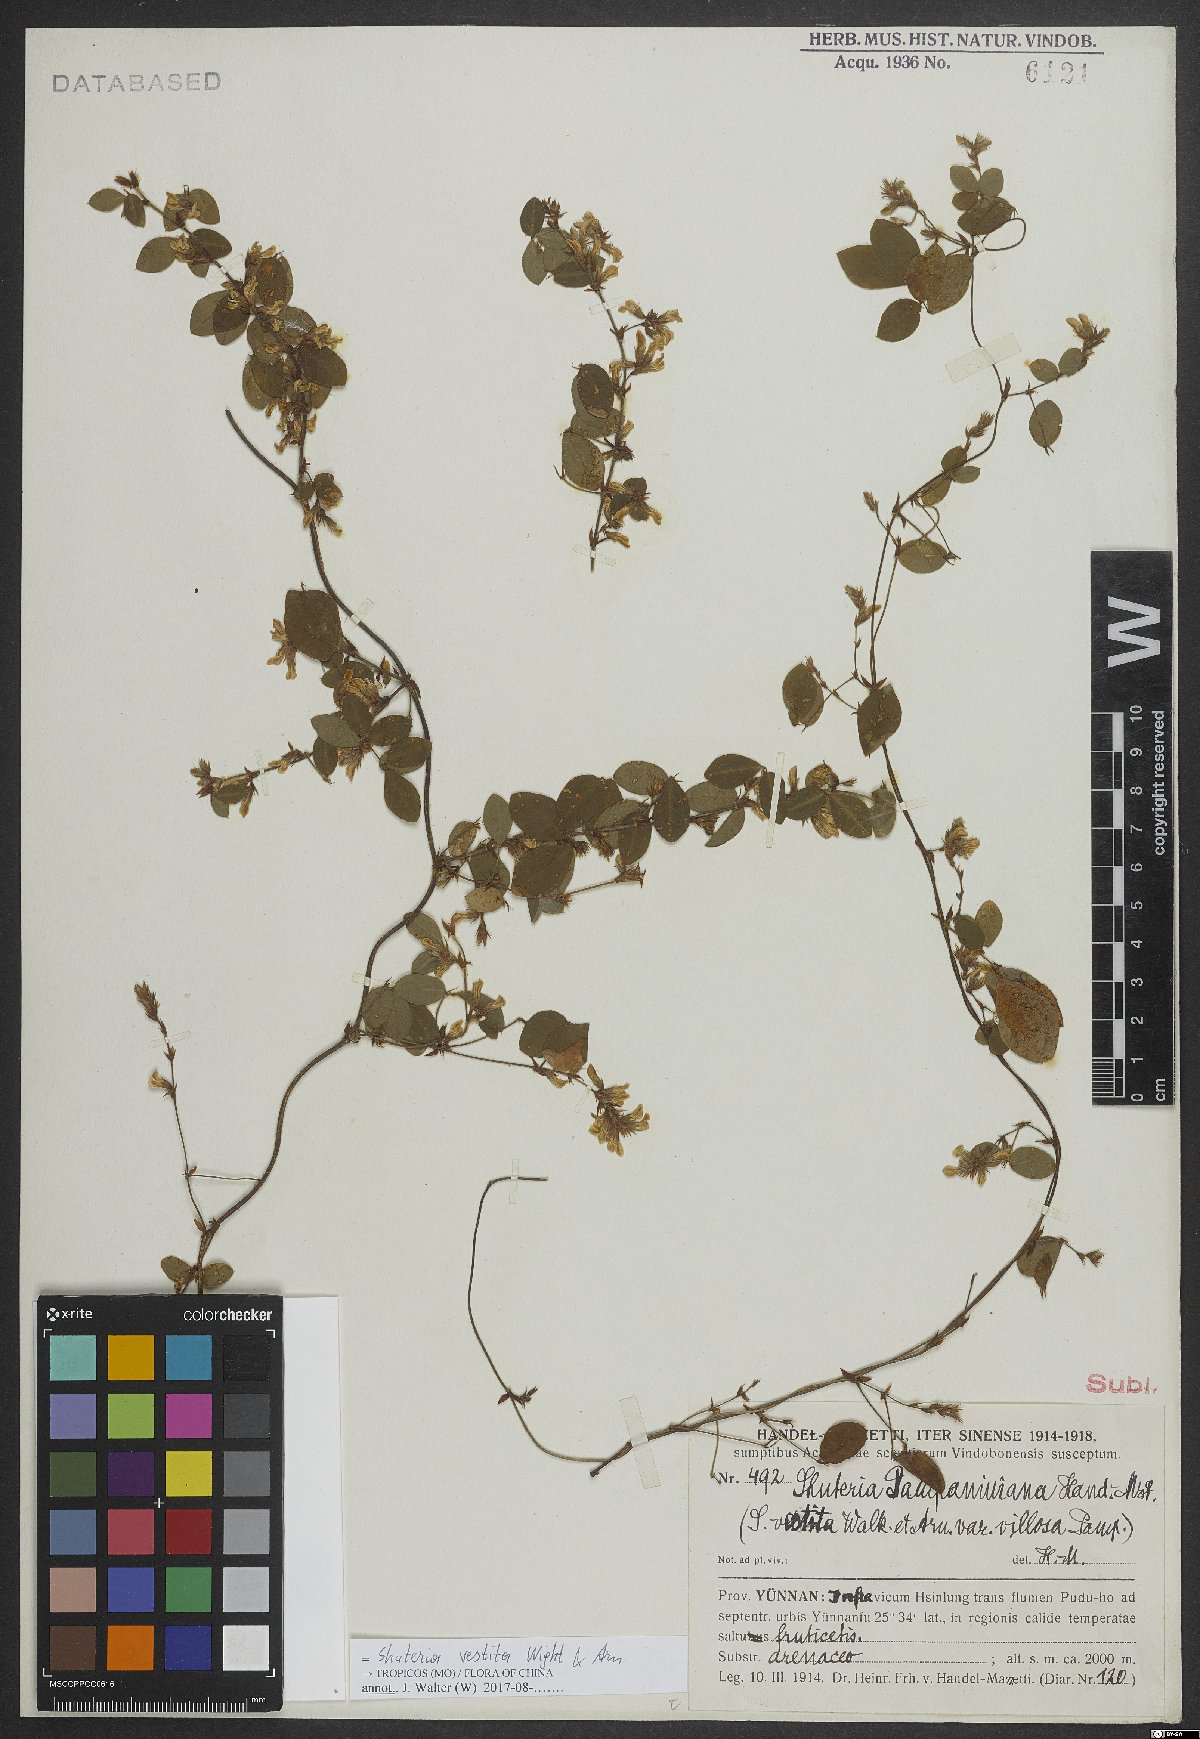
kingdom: Plantae
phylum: Tracheophyta
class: Magnoliopsida
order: Fabales
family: Fabaceae
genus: Shuteria
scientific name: Shuteria vestita
